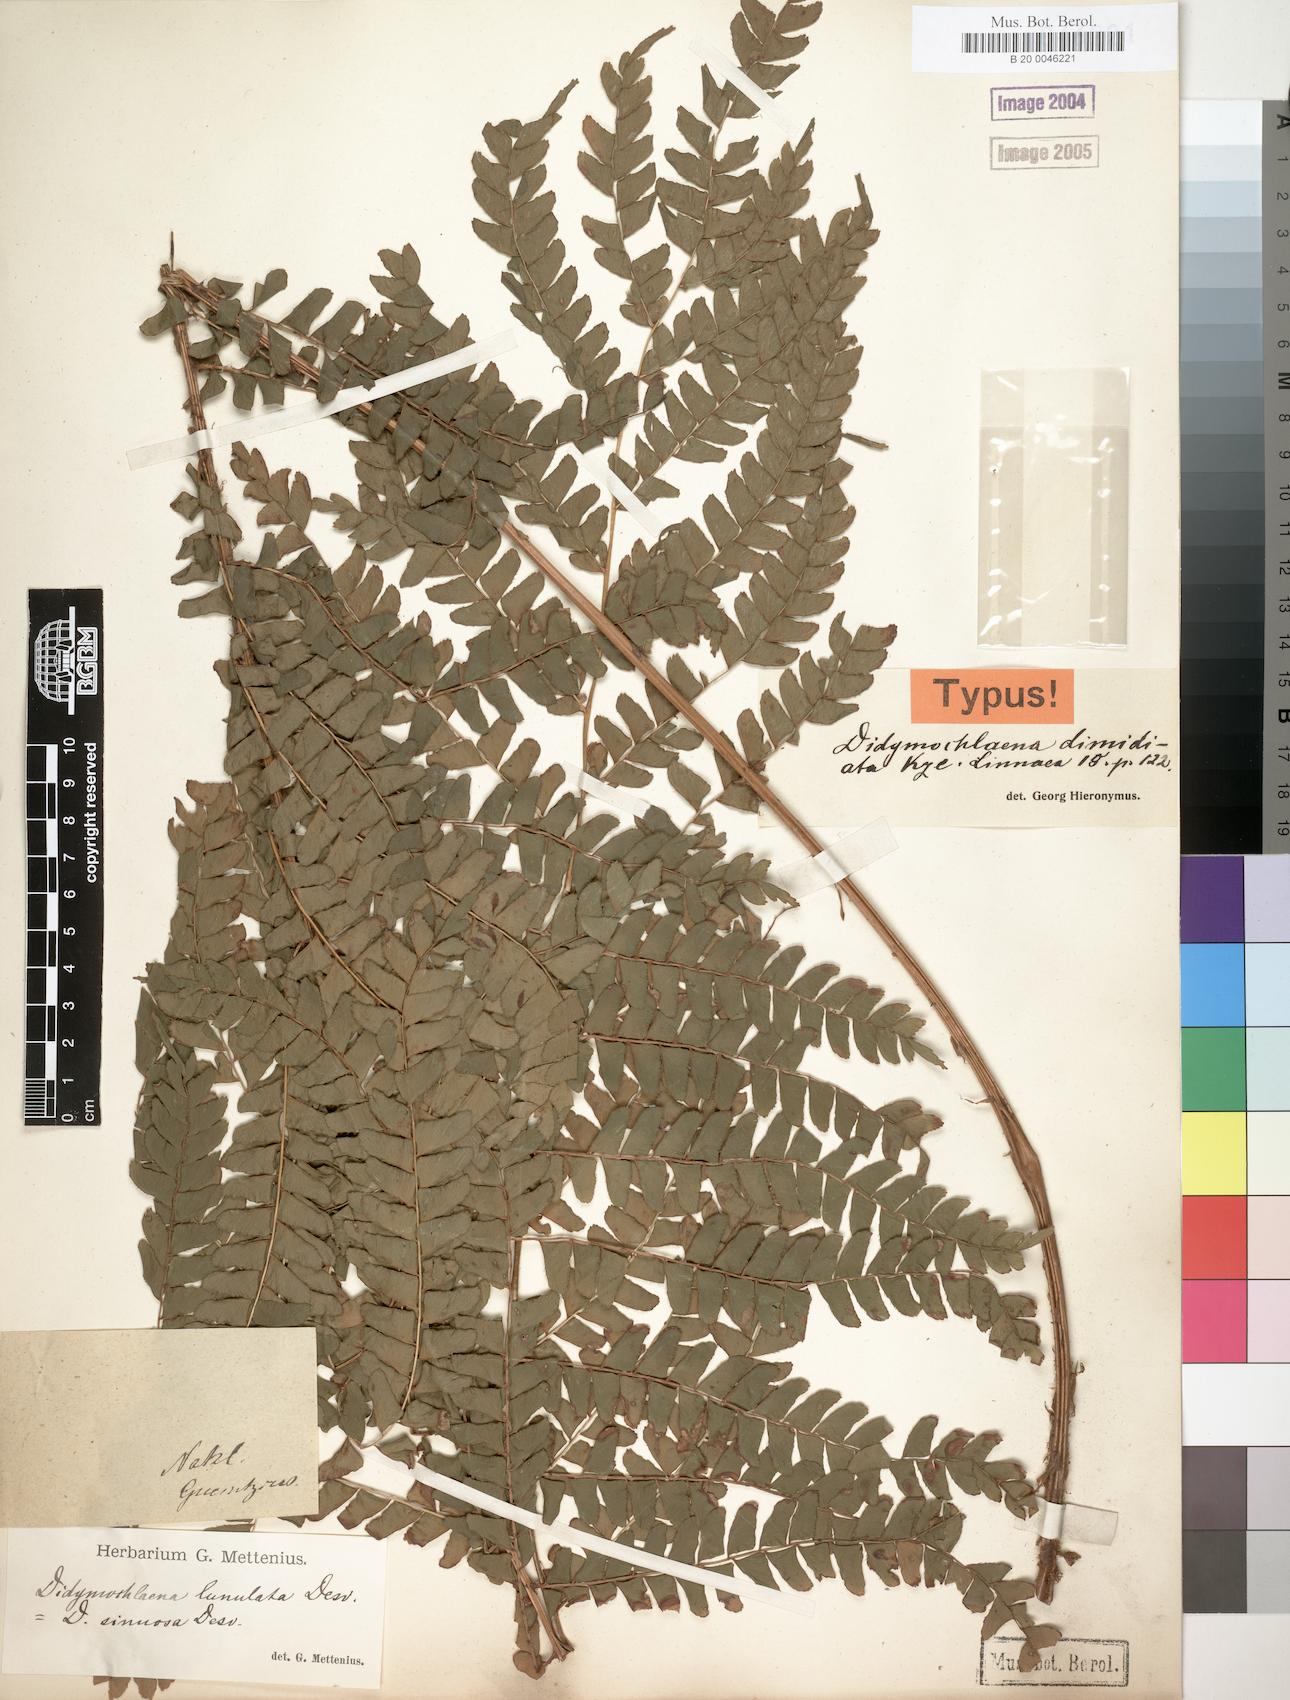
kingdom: Plantae
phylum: Tracheophyta
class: Polypodiopsida
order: Polypodiales
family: Didymochlaenaceae
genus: Didymochlaena
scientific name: Didymochlaena truncatula
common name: Mahogany fern
